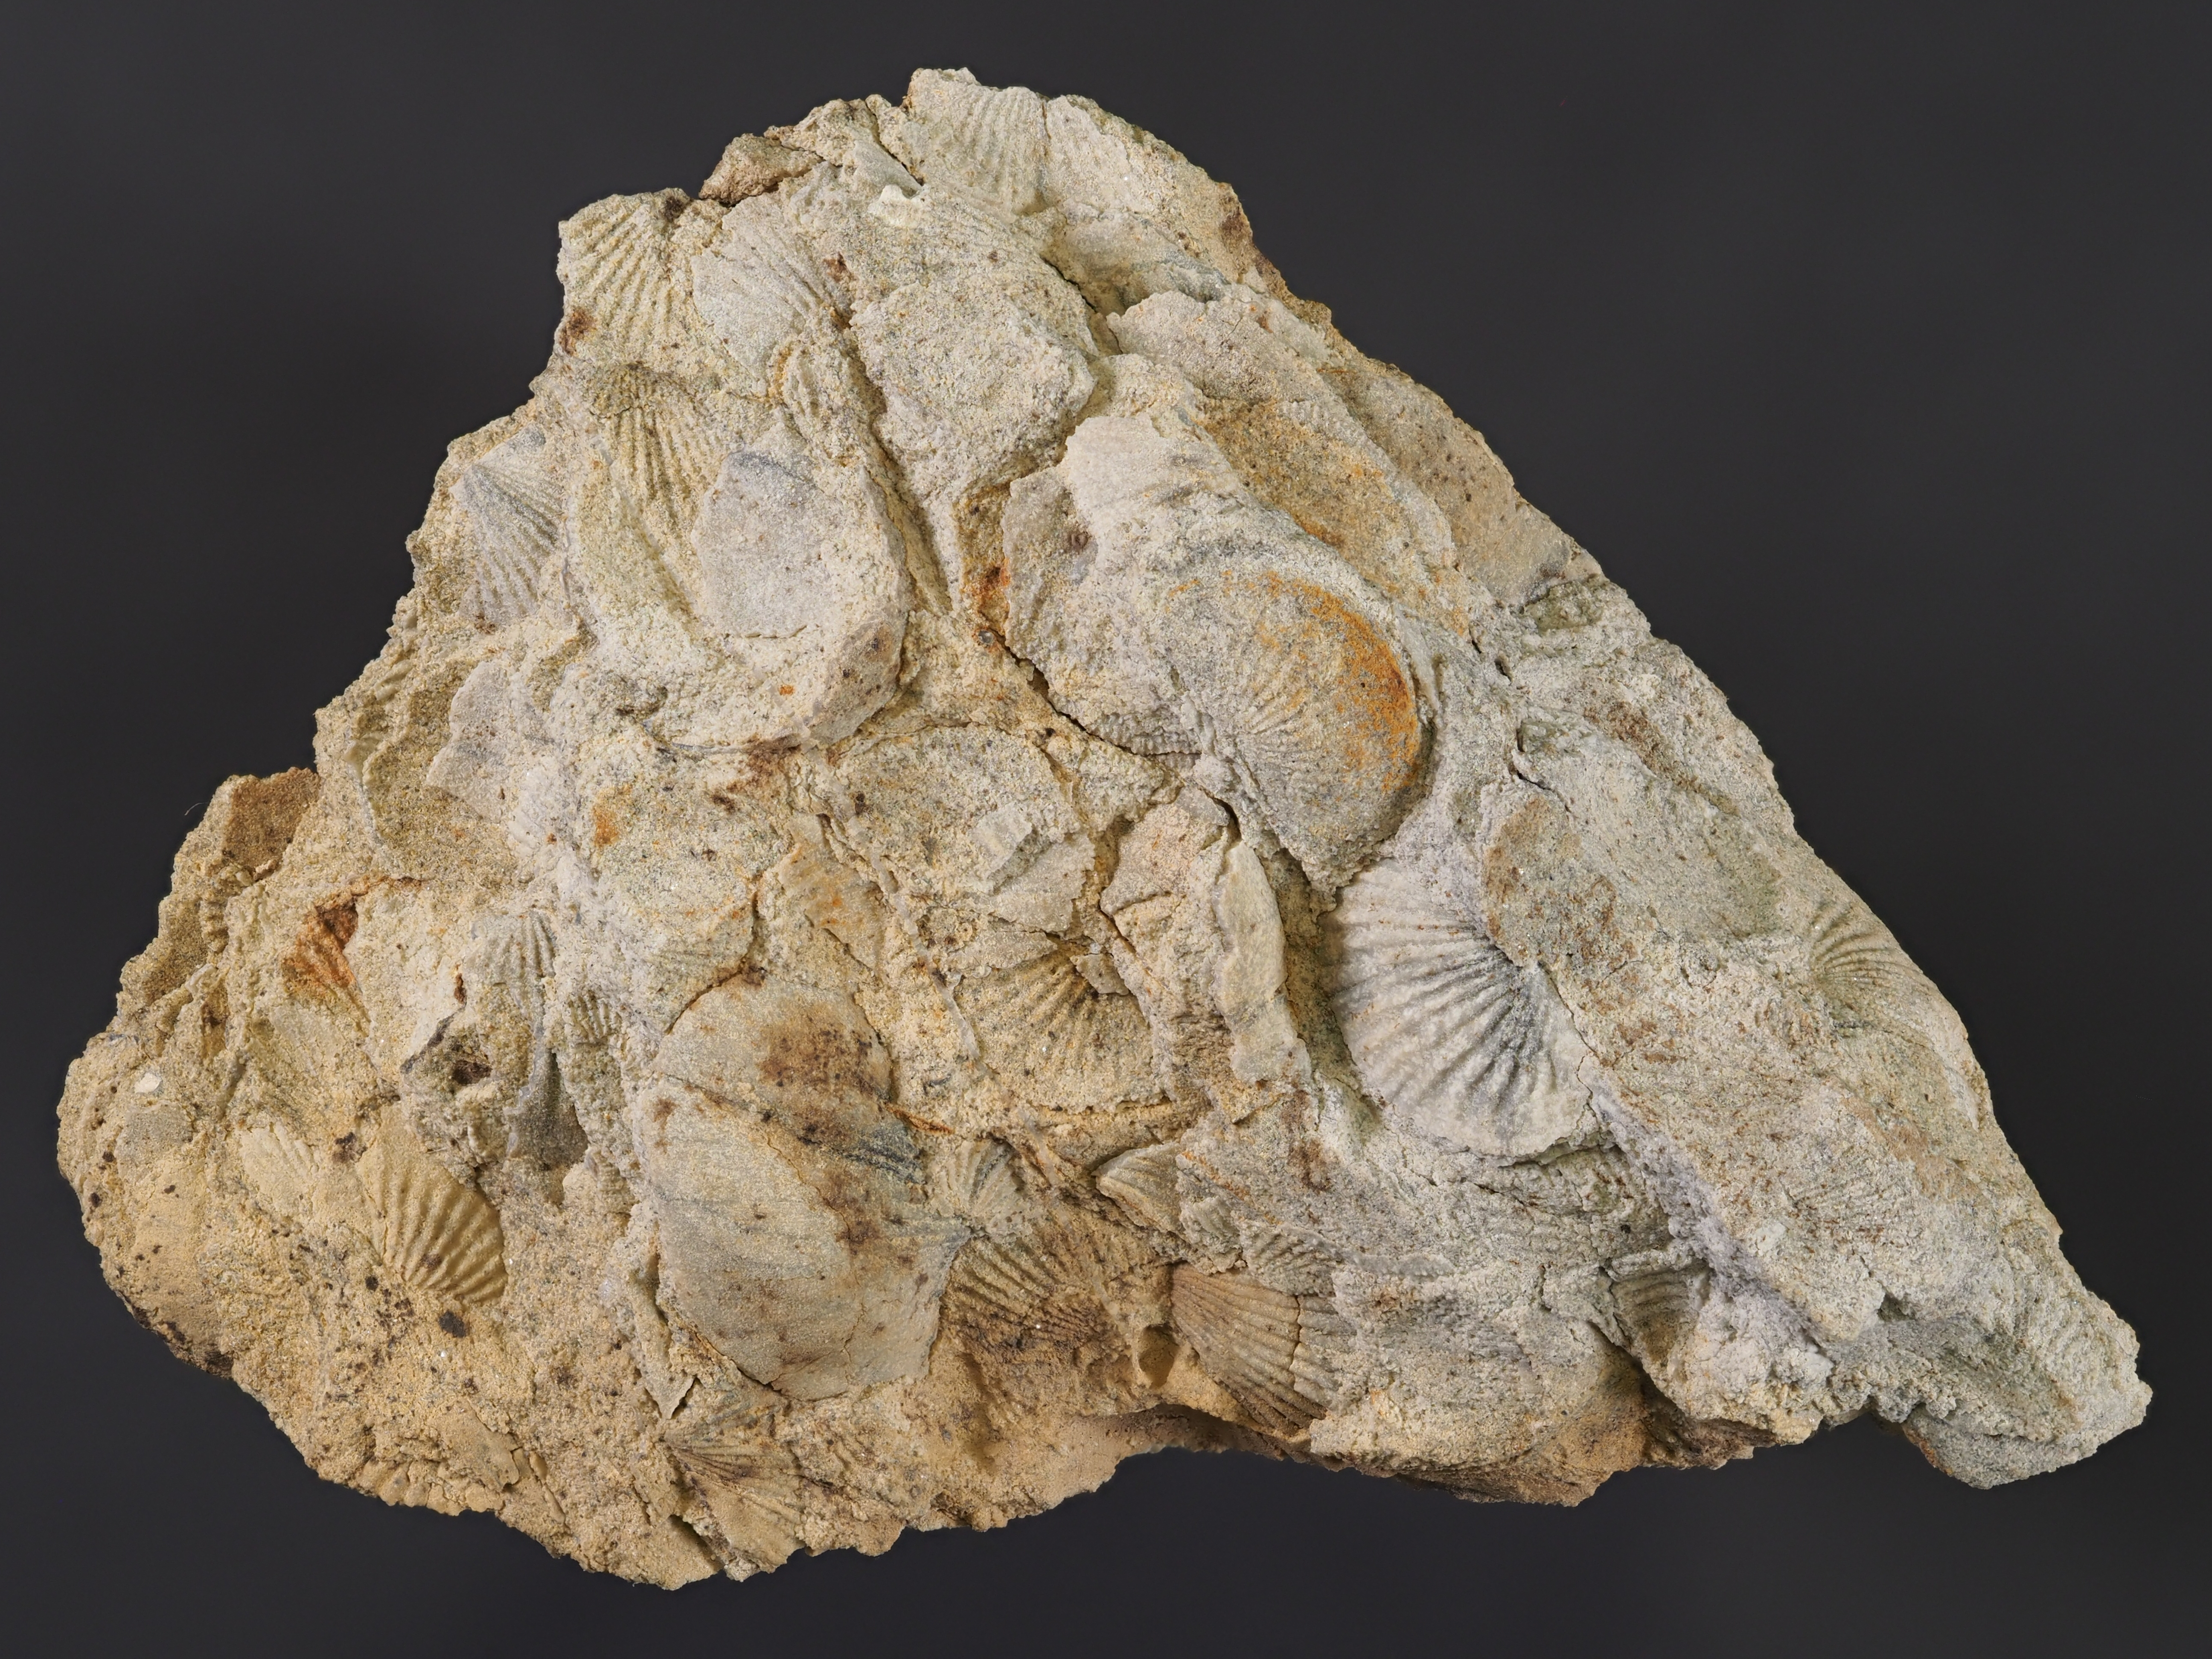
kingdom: Animalia
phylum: Brachiopoda
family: Chonetidae
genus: Plebejochonetes
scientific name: Plebejochonetes
